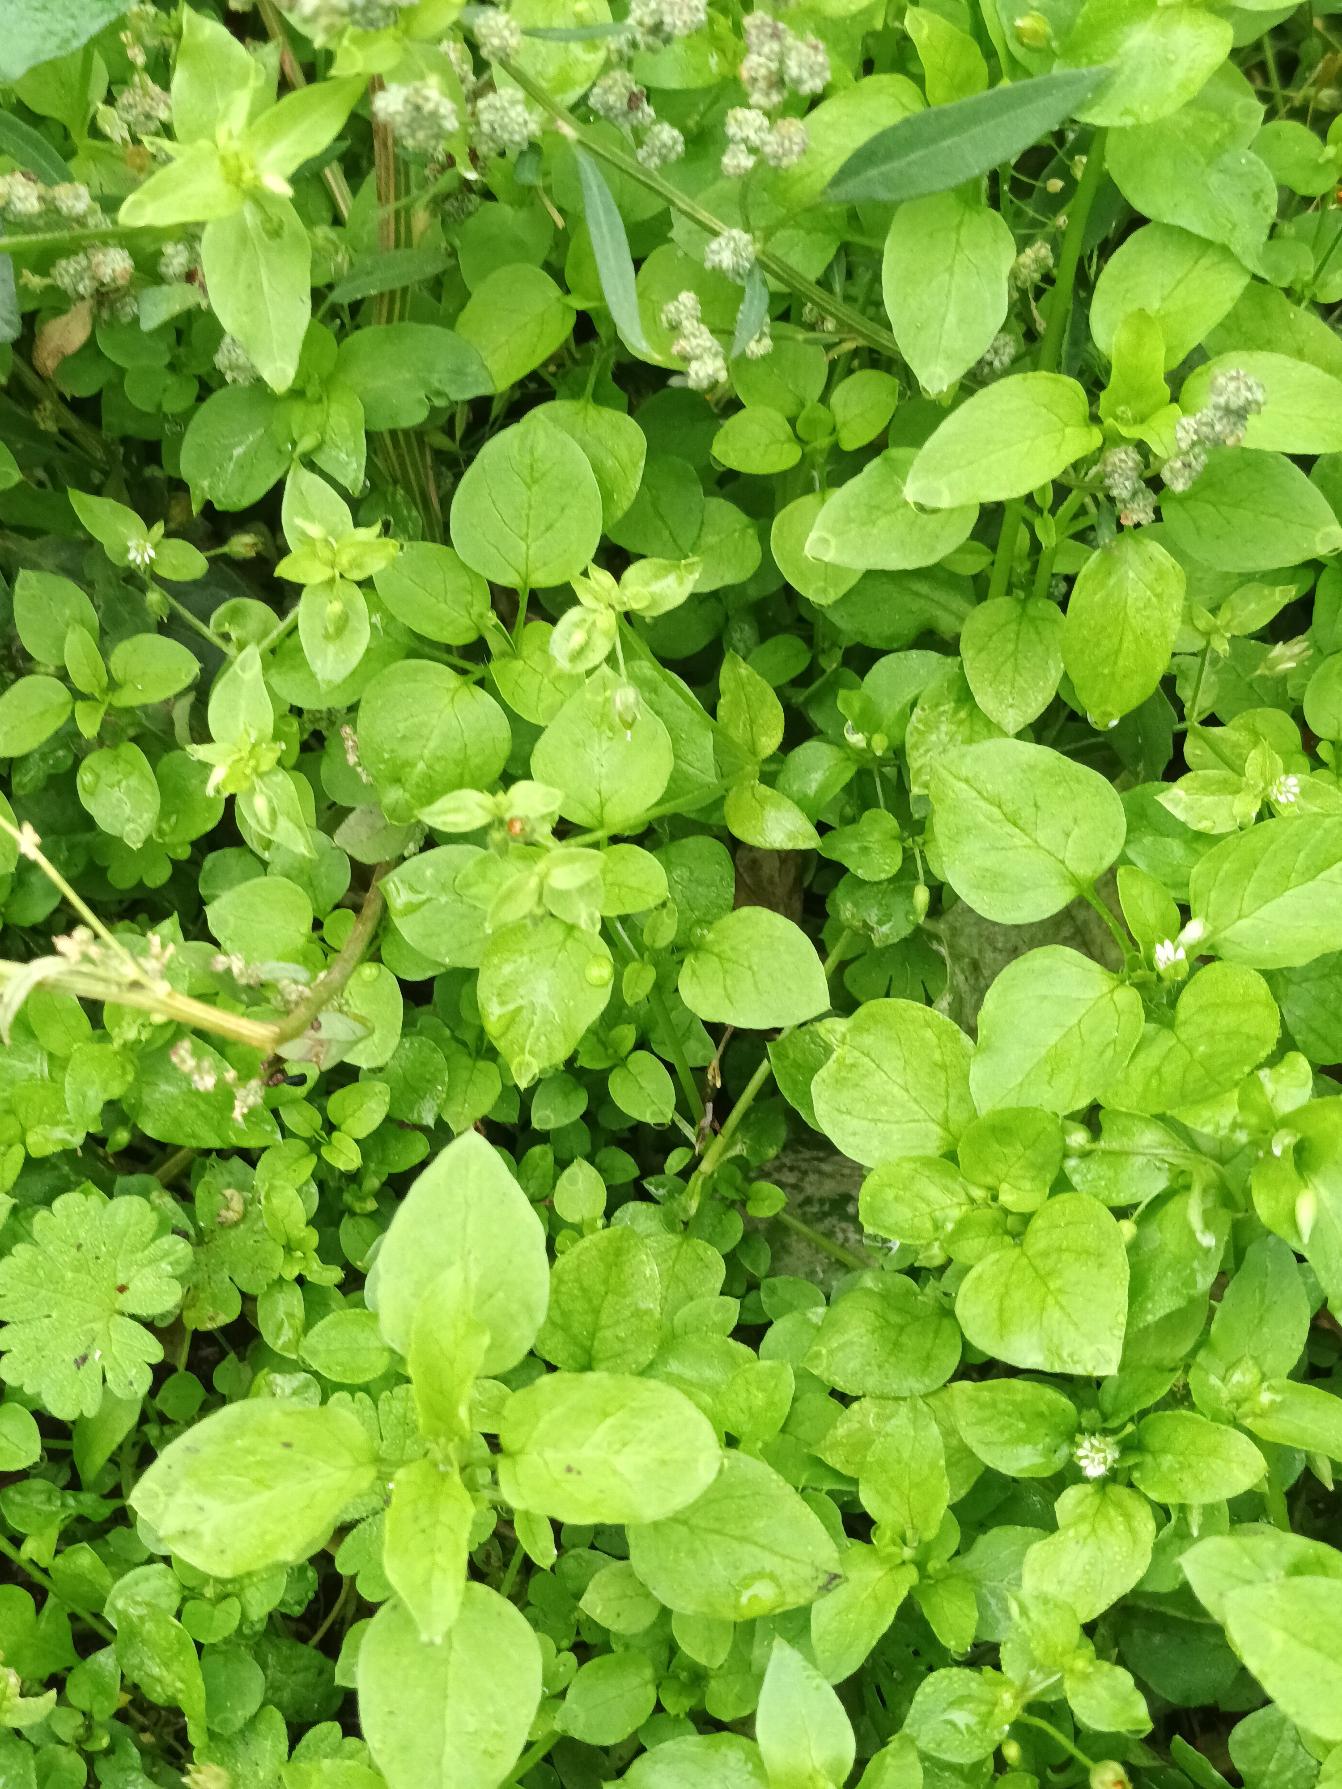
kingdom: Plantae
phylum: Tracheophyta
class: Magnoliopsida
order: Caryophyllales
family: Caryophyllaceae
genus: Stellaria
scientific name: Stellaria media
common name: Almindelig fuglegræs
